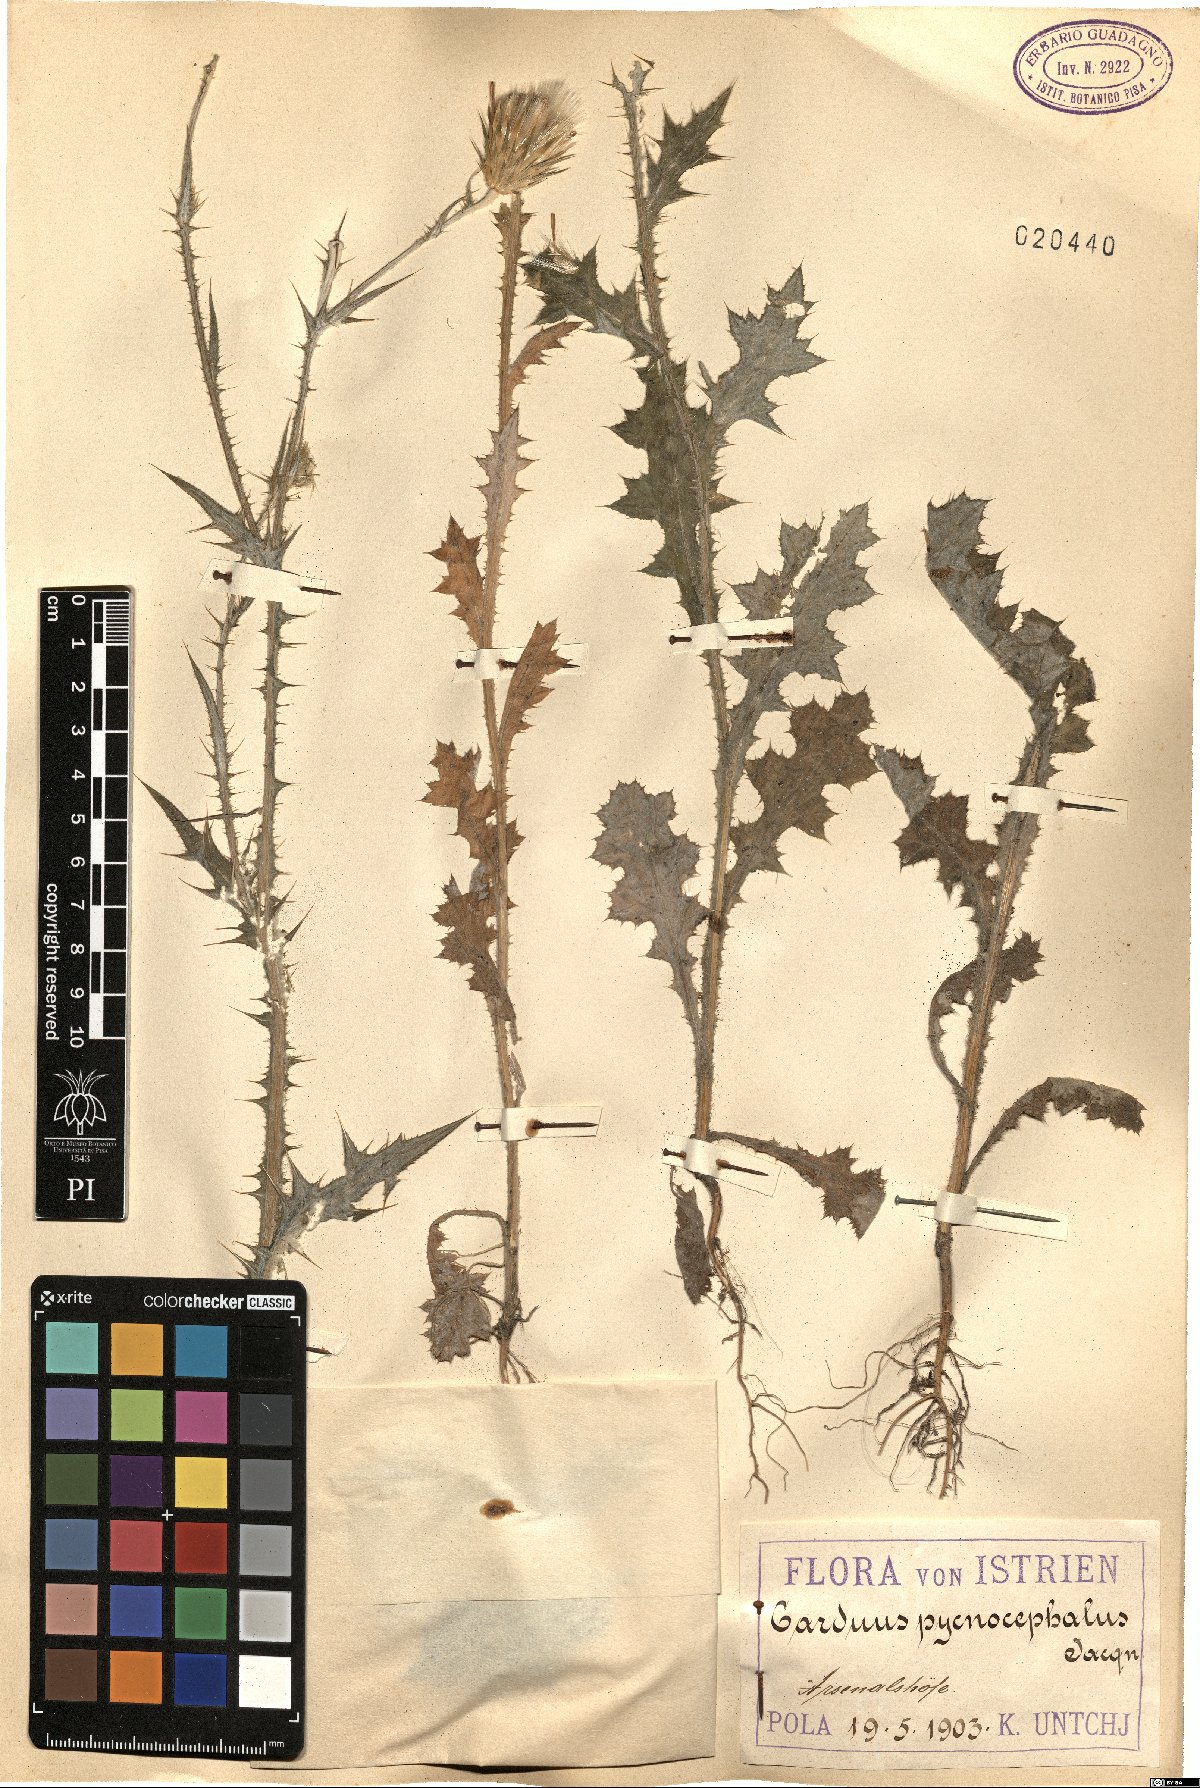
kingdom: Plantae
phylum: Tracheophyta
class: Magnoliopsida
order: Asterales
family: Asteraceae
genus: Carduus
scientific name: Carduus pycnocephalus
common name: Plymouth thistle
